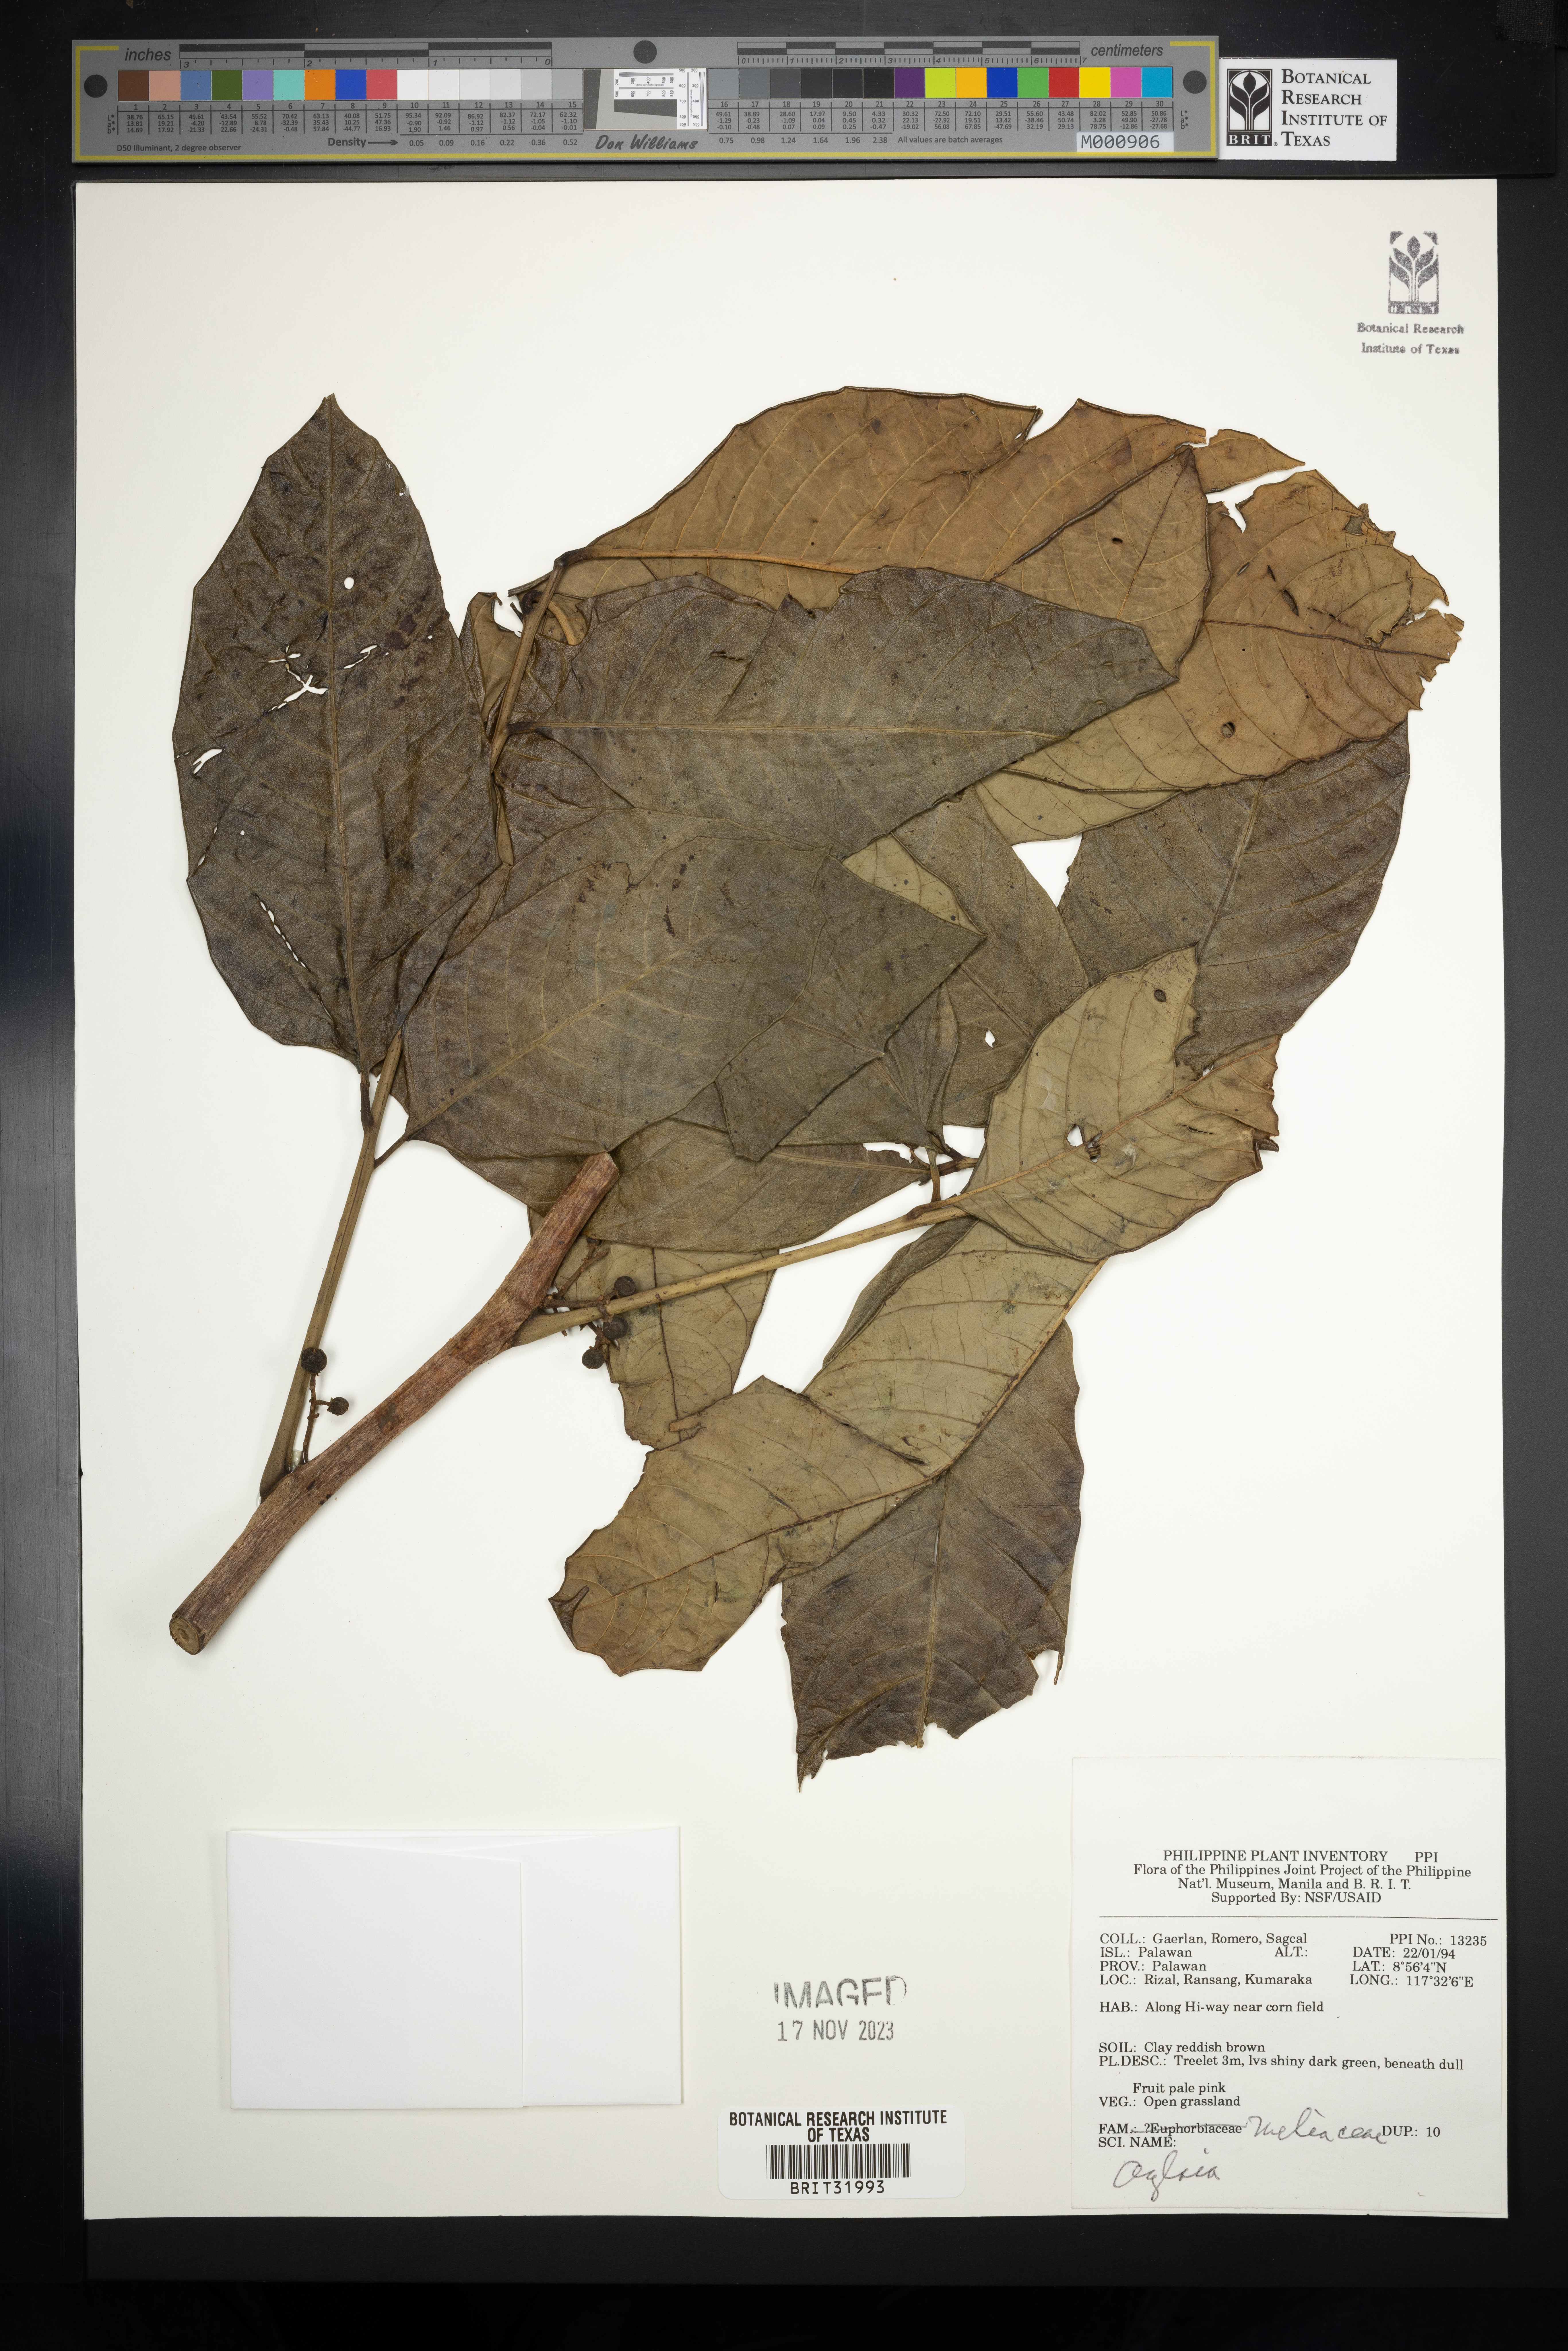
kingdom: Plantae
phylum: Tracheophyta
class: Magnoliopsida
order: Sapindales
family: Meliaceae
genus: Aglaia
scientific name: Aglaia
